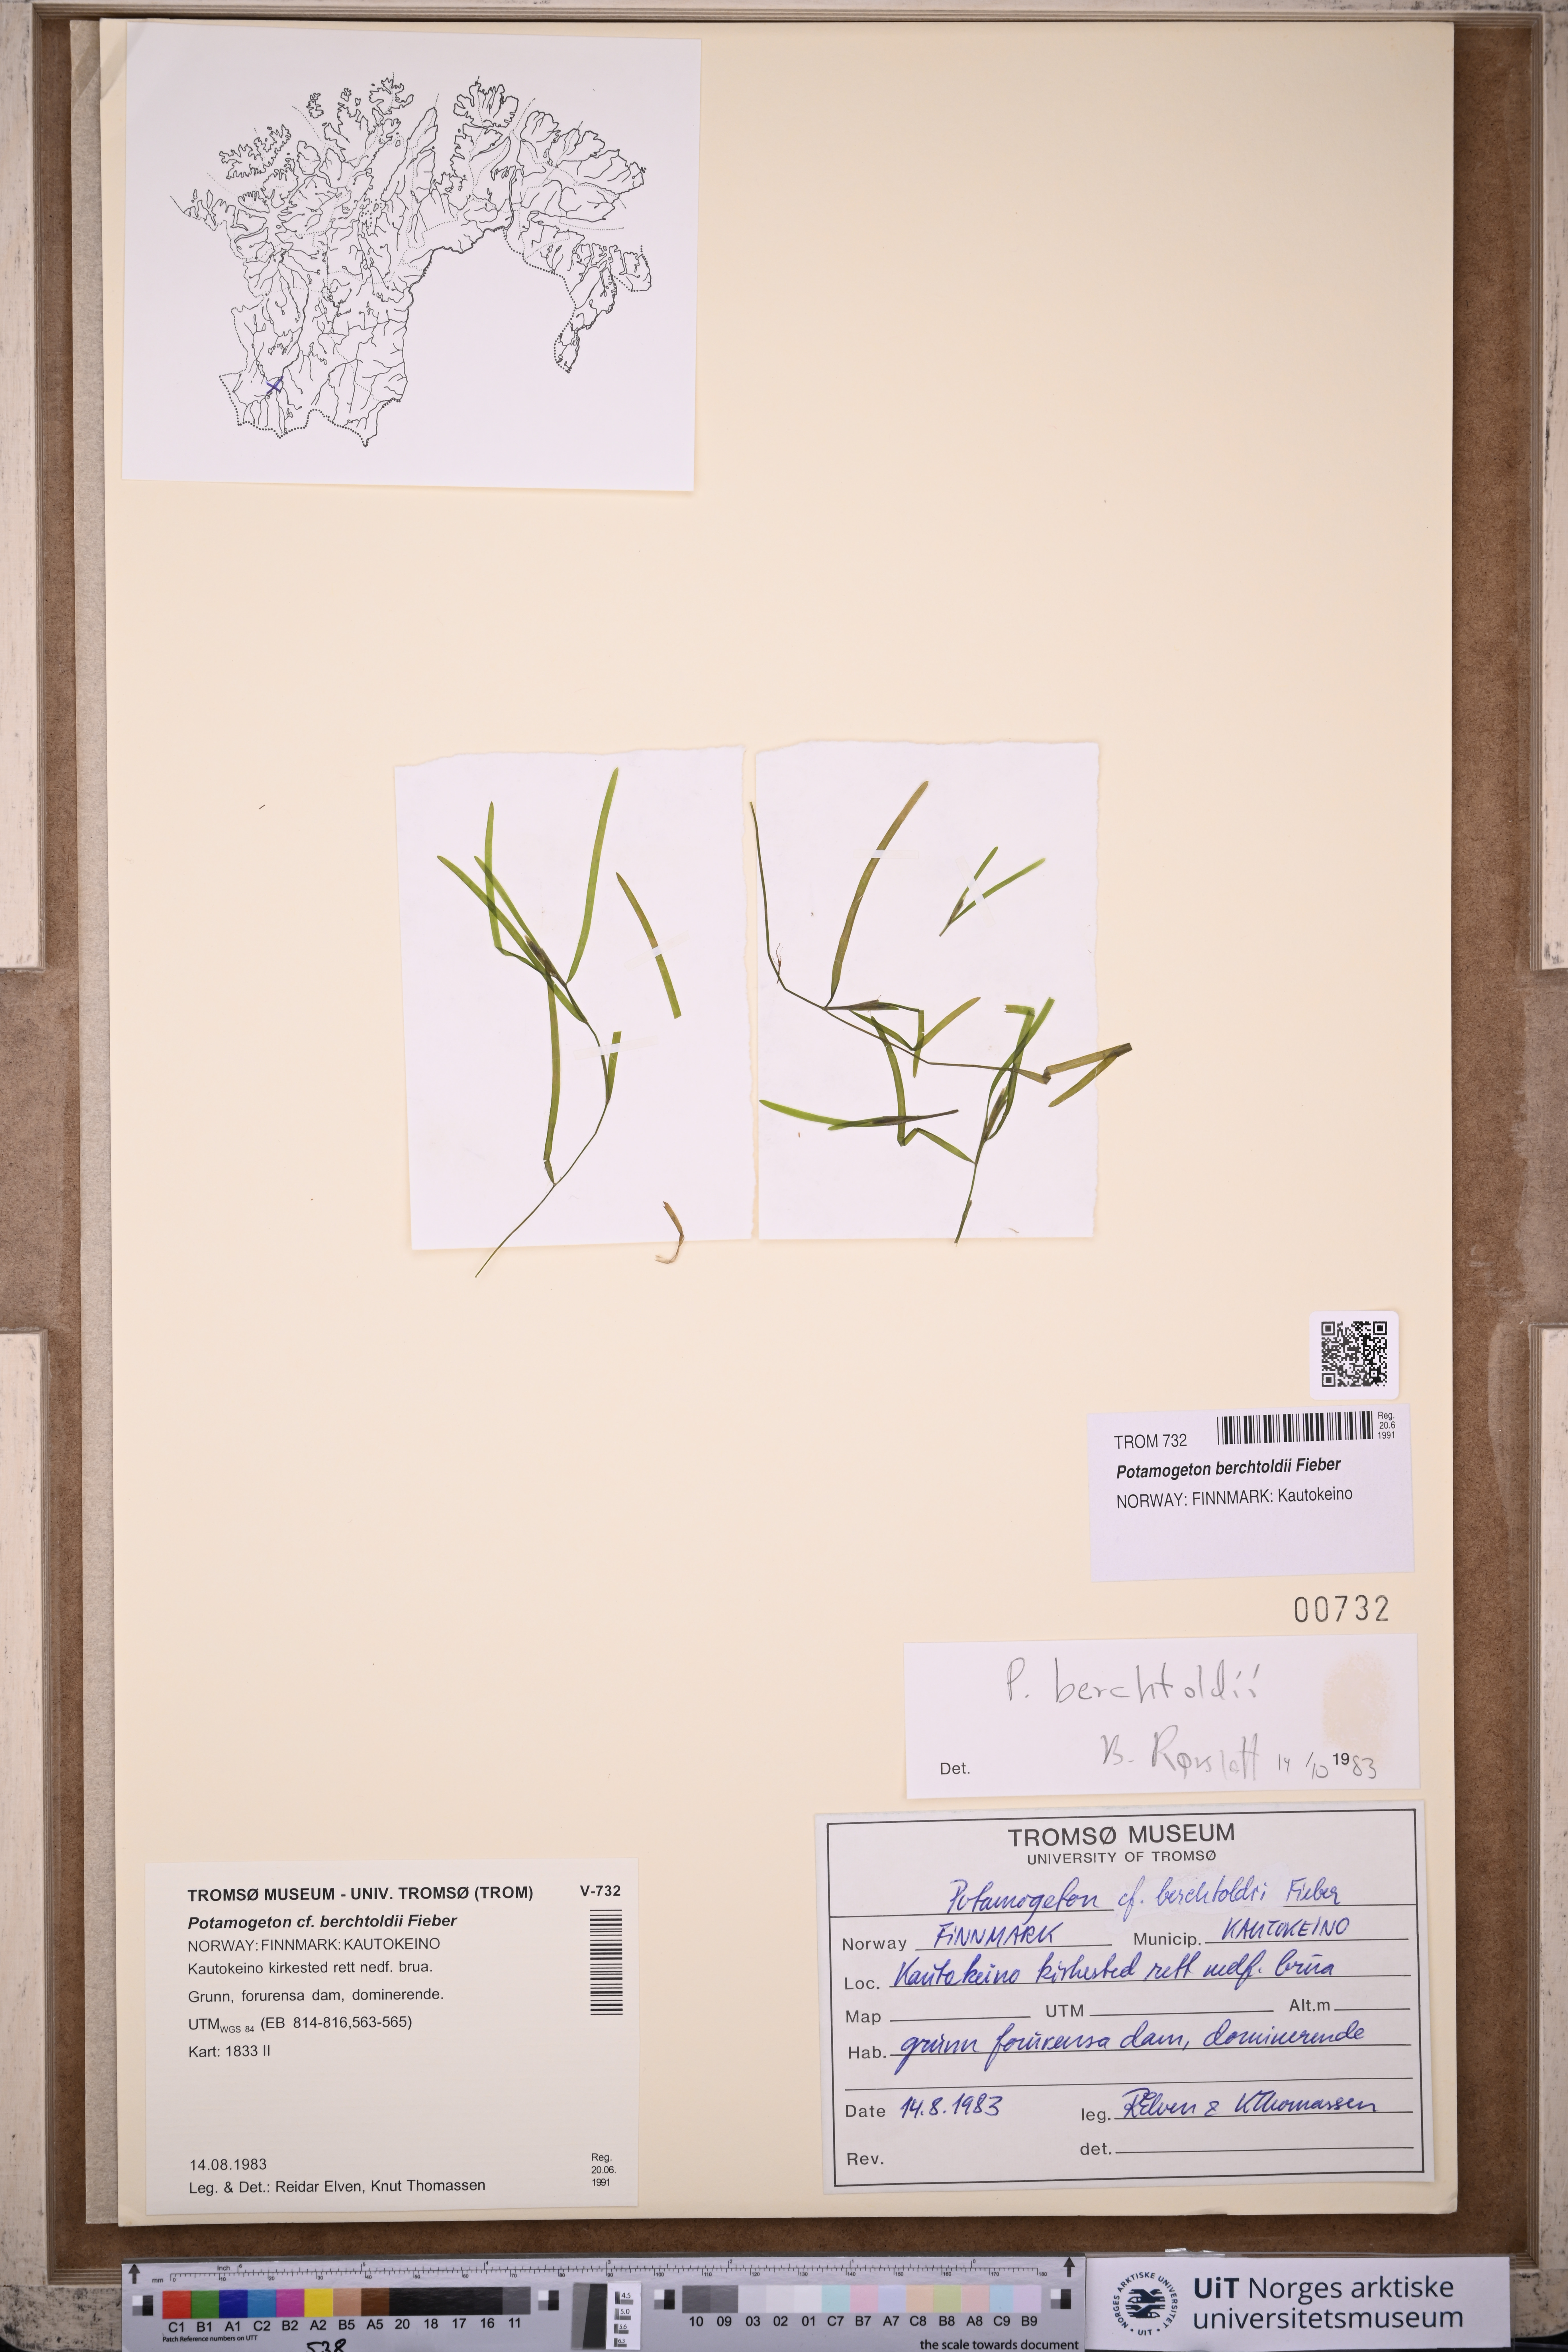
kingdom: Plantae
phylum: Tracheophyta
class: Liliopsida
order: Alismatales
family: Potamogetonaceae
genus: Potamogeton
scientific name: Potamogeton berchtoldii
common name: Small pondweed
